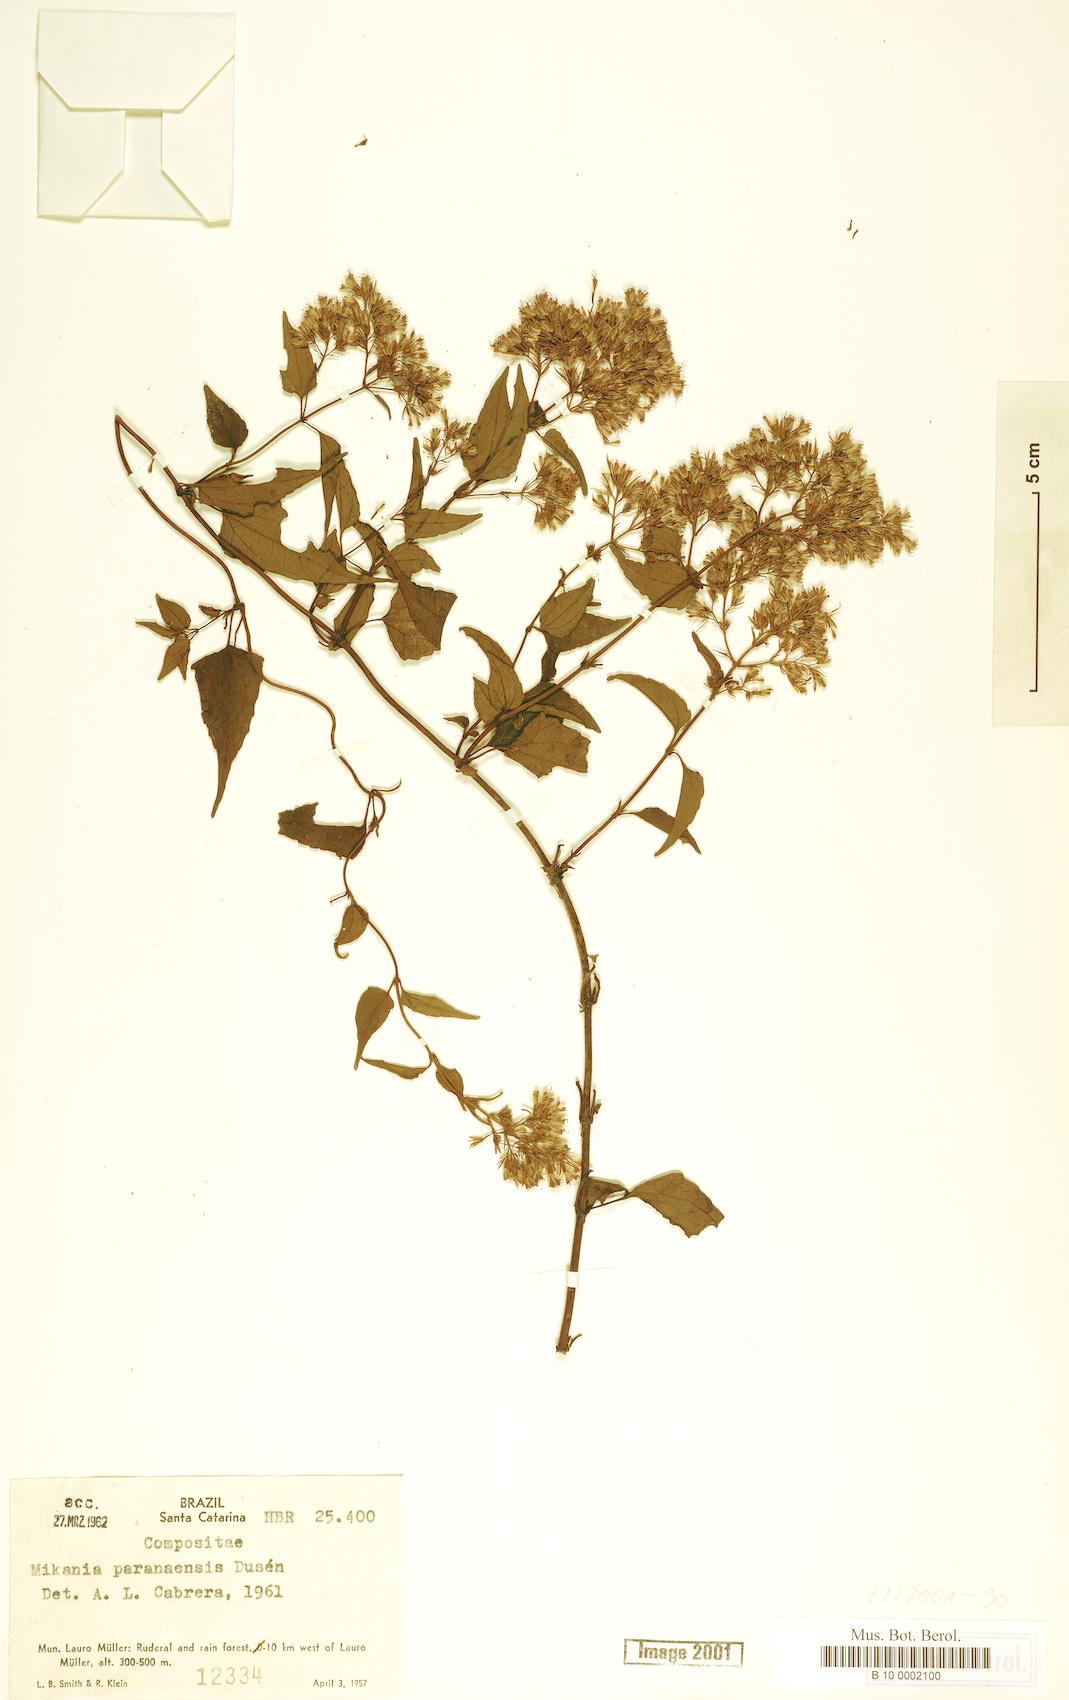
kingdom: Plantae
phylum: Tracheophyta
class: Magnoliopsida
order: Asterales
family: Asteraceae
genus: Mikania
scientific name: Mikania paranensis
